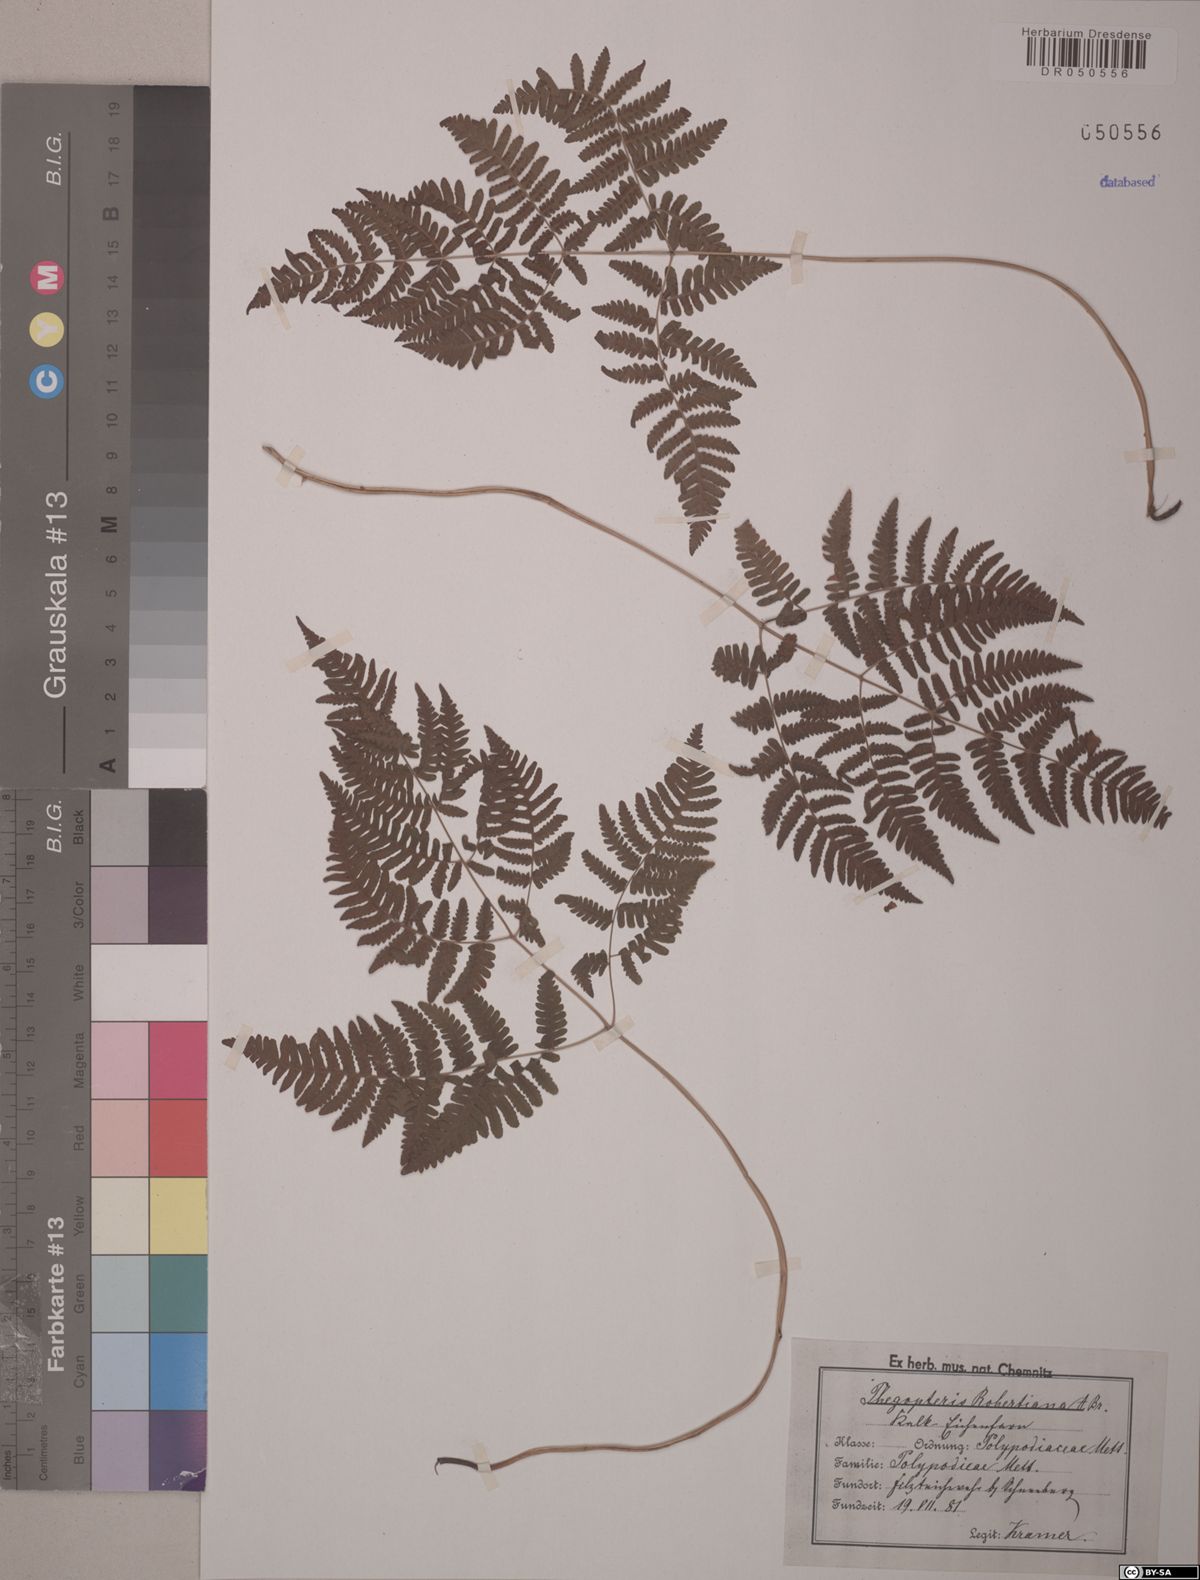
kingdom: Plantae
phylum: Tracheophyta
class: Polypodiopsida
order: Polypodiales
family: Cystopteridaceae
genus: Gymnocarpium
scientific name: Gymnocarpium robertianum
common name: Limestone fern
